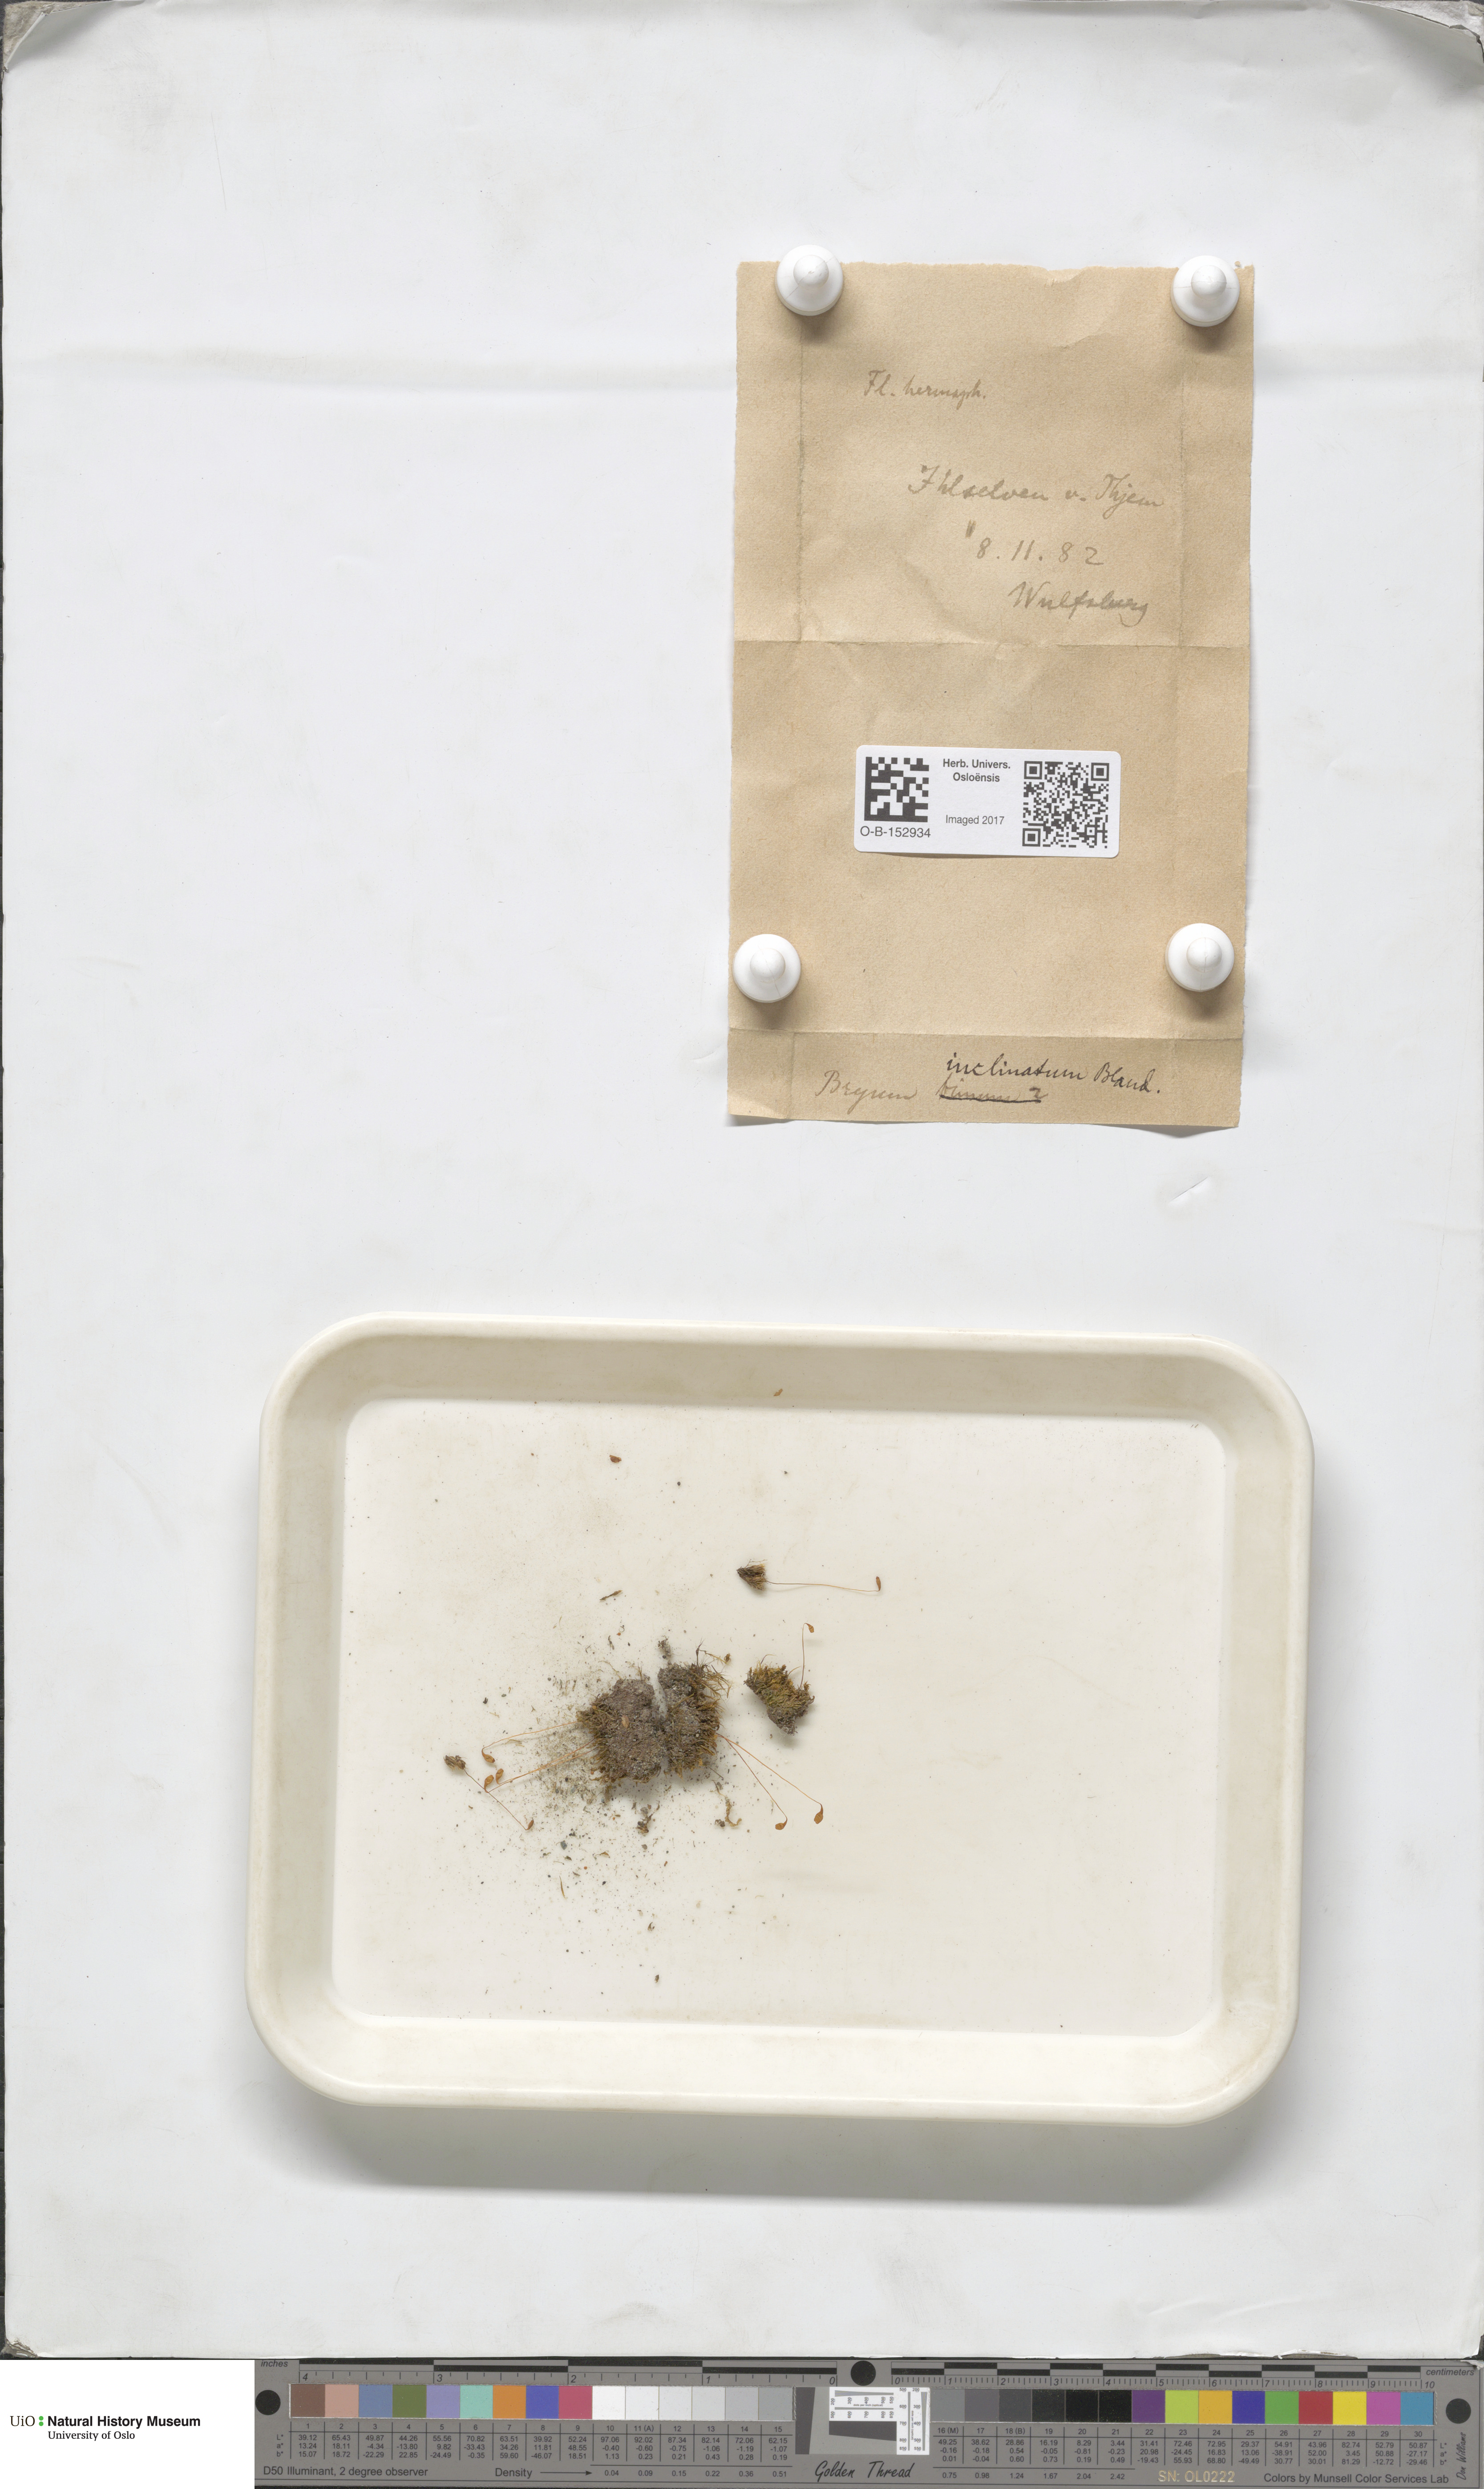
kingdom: Plantae
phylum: Bryophyta
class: Bryopsida
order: Bryales
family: Bryaceae
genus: Ptychostomum
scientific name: Ptychostomum inclinatum
